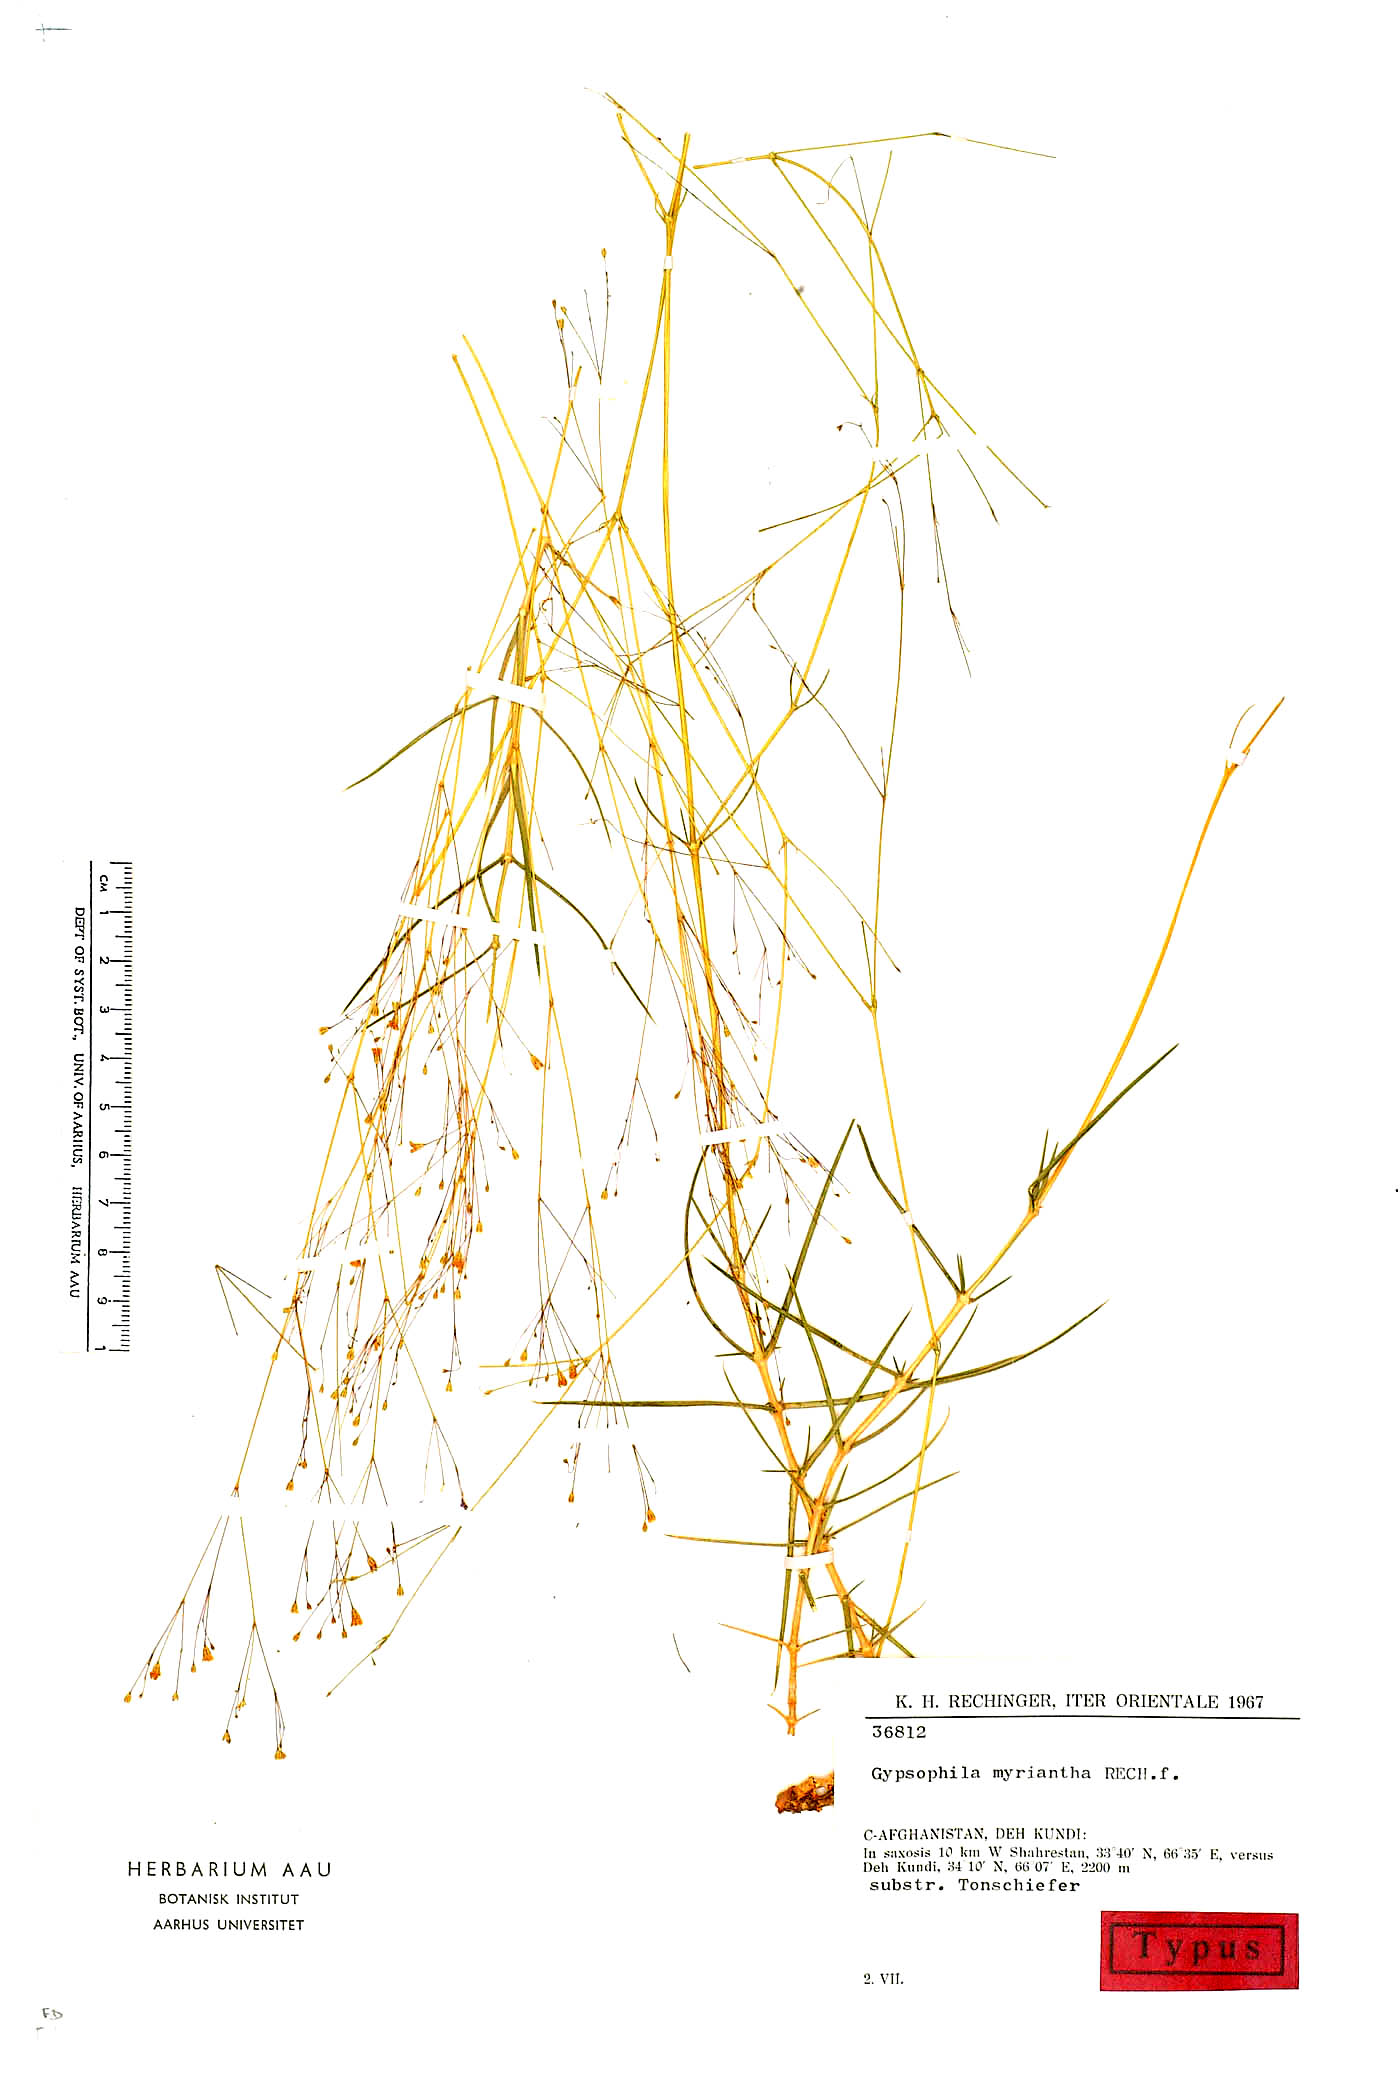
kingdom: Plantae
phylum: Tracheophyta
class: Magnoliopsida
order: Caryophyllales
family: Caryophyllaceae
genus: Acanthophyllum
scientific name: Acanthophyllum myrianthum
